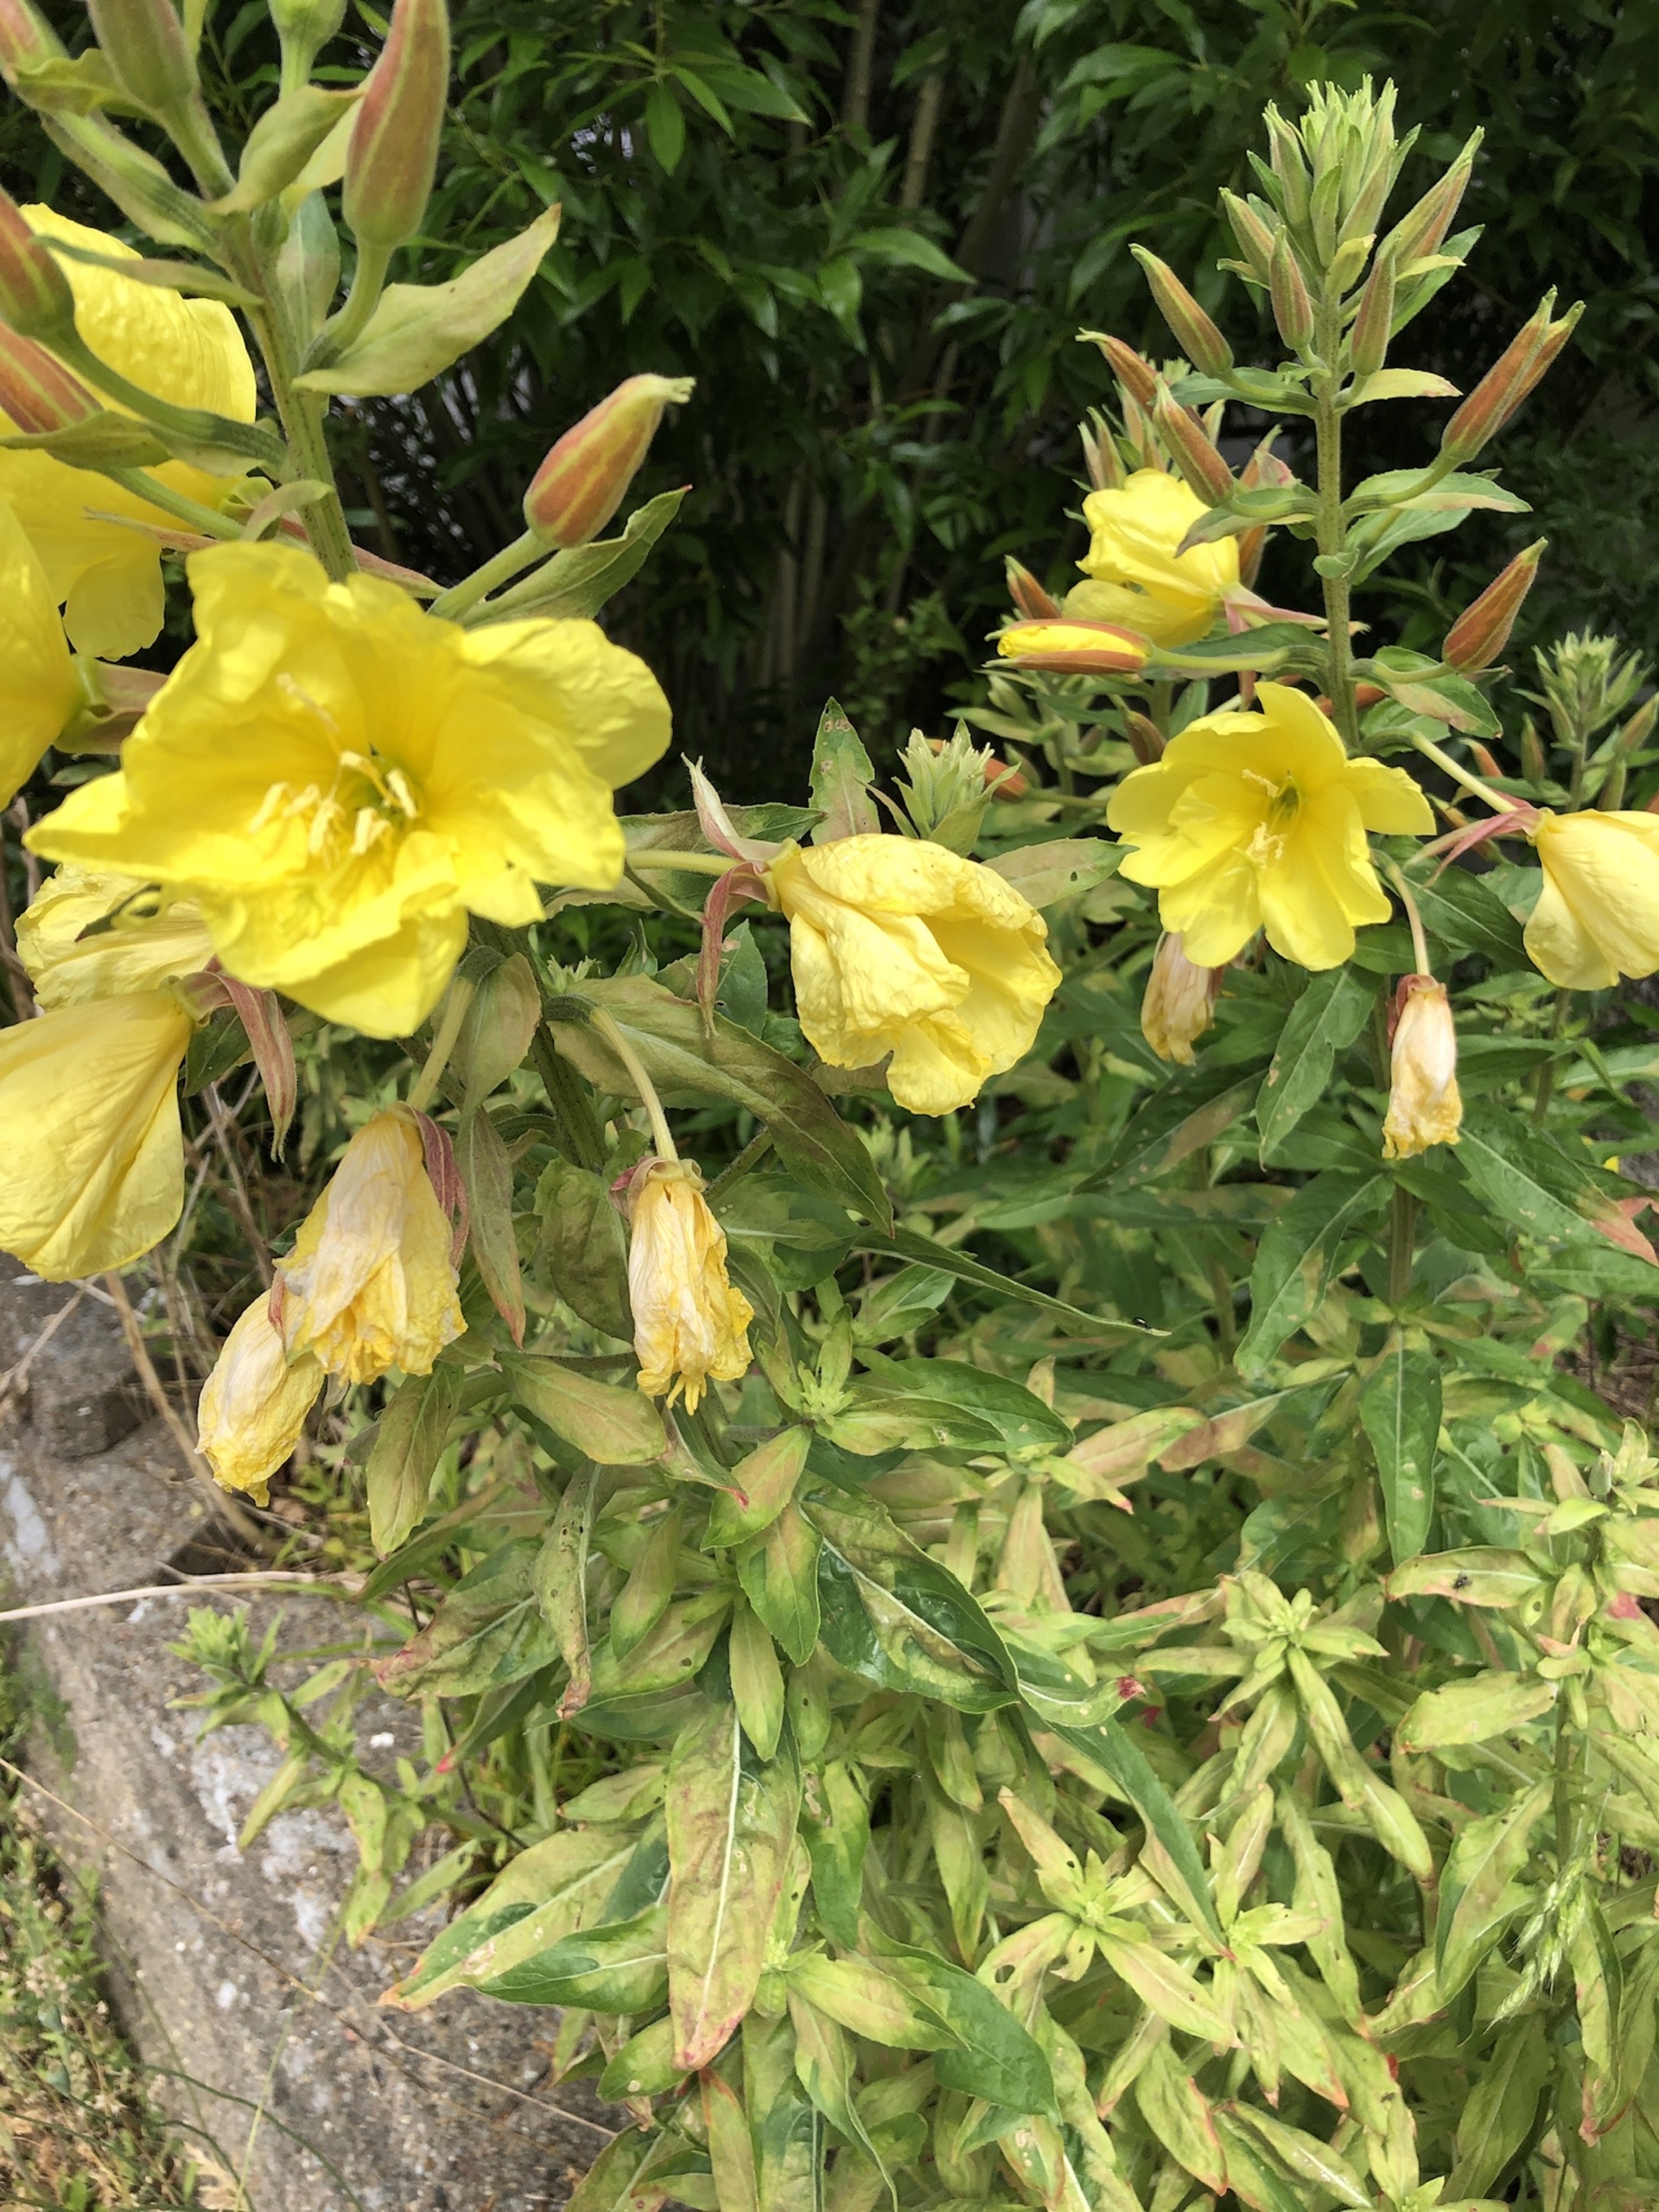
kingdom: Plantae
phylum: Tracheophyta
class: Magnoliopsida
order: Myrtales
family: Onagraceae
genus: Oenothera
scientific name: Oenothera glazioviana
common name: Kæmpe-natlys
